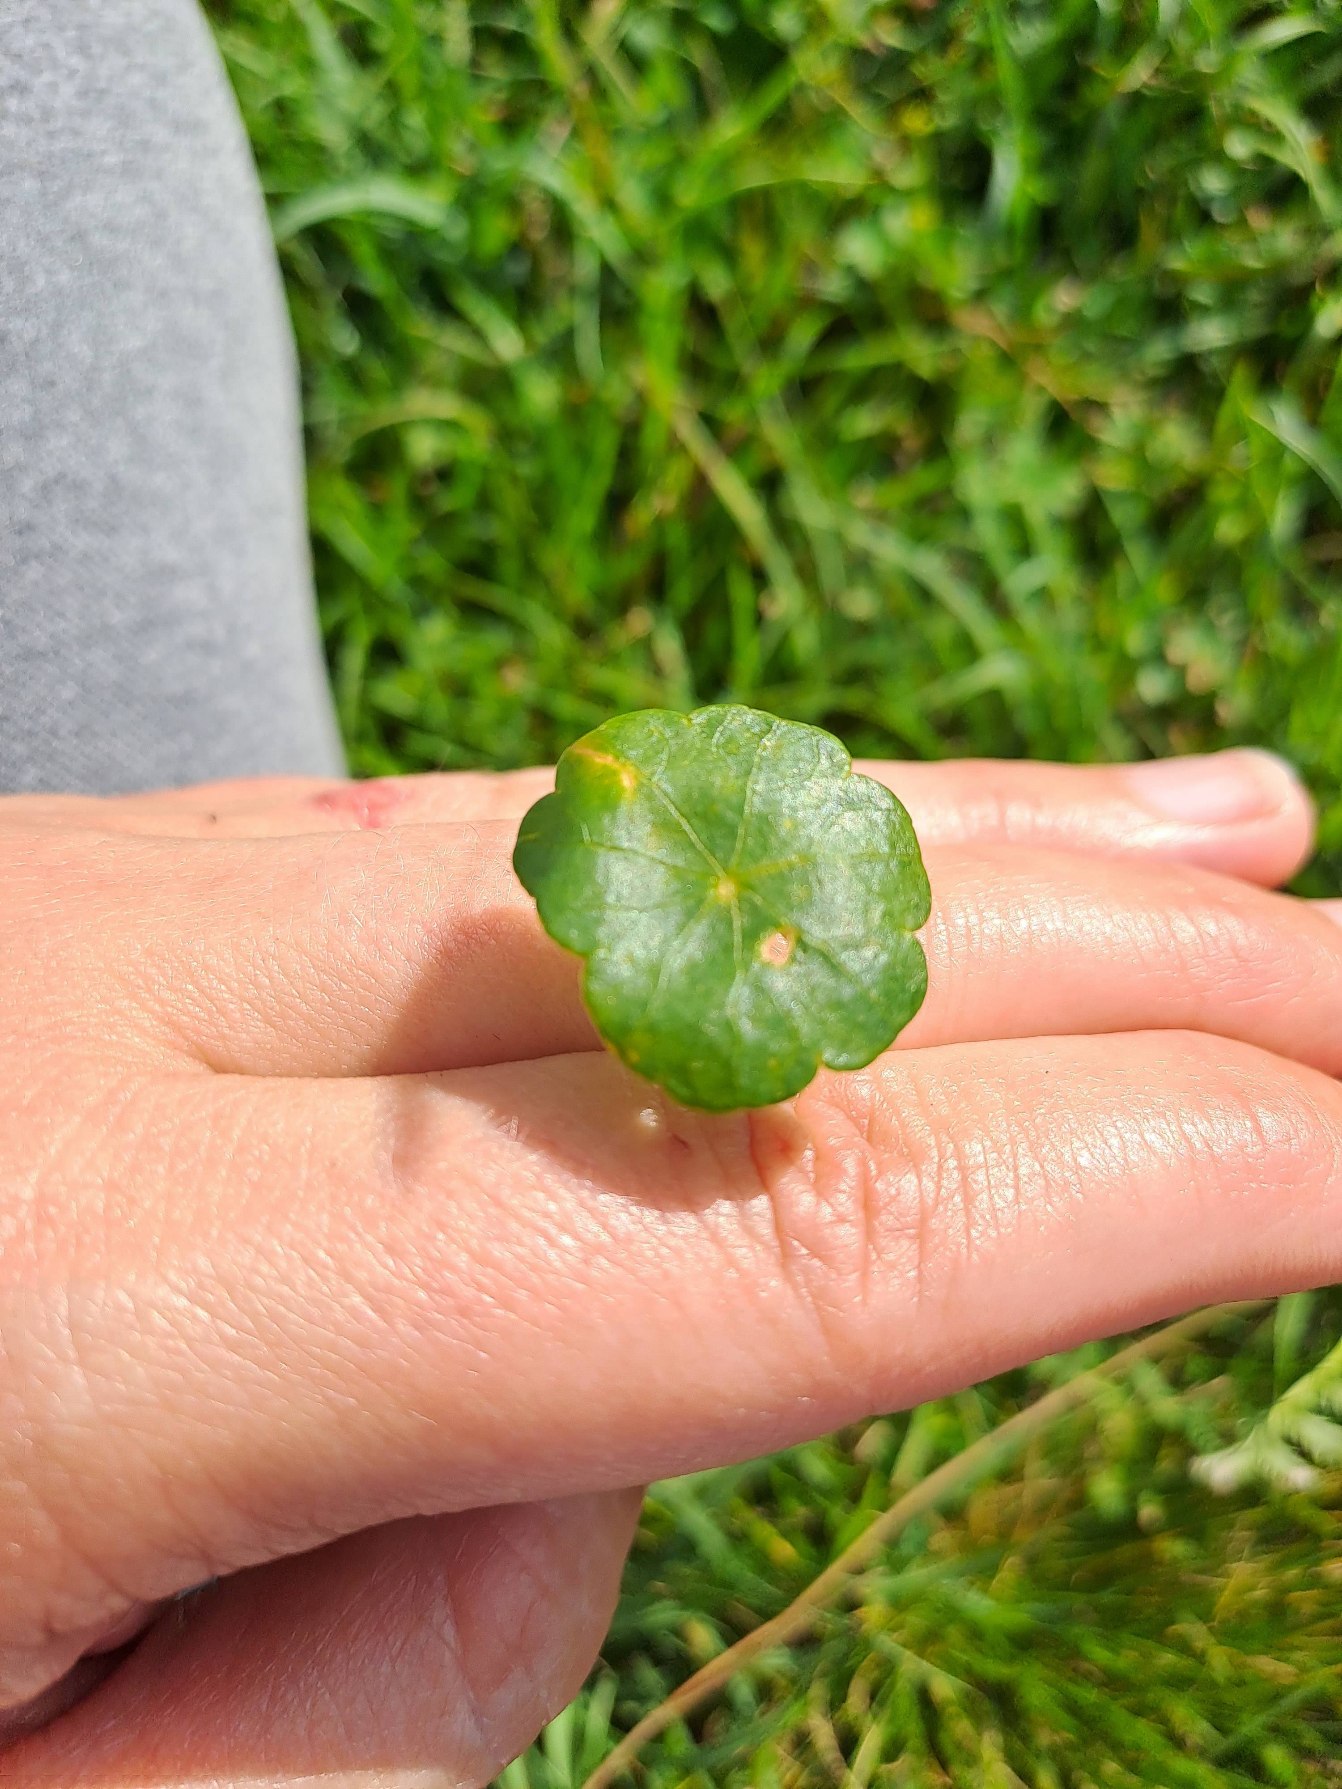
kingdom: Plantae
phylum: Tracheophyta
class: Magnoliopsida
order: Apiales
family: Araliaceae
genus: Hydrocotyle
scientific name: Hydrocotyle vulgaris
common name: Vandnavle
